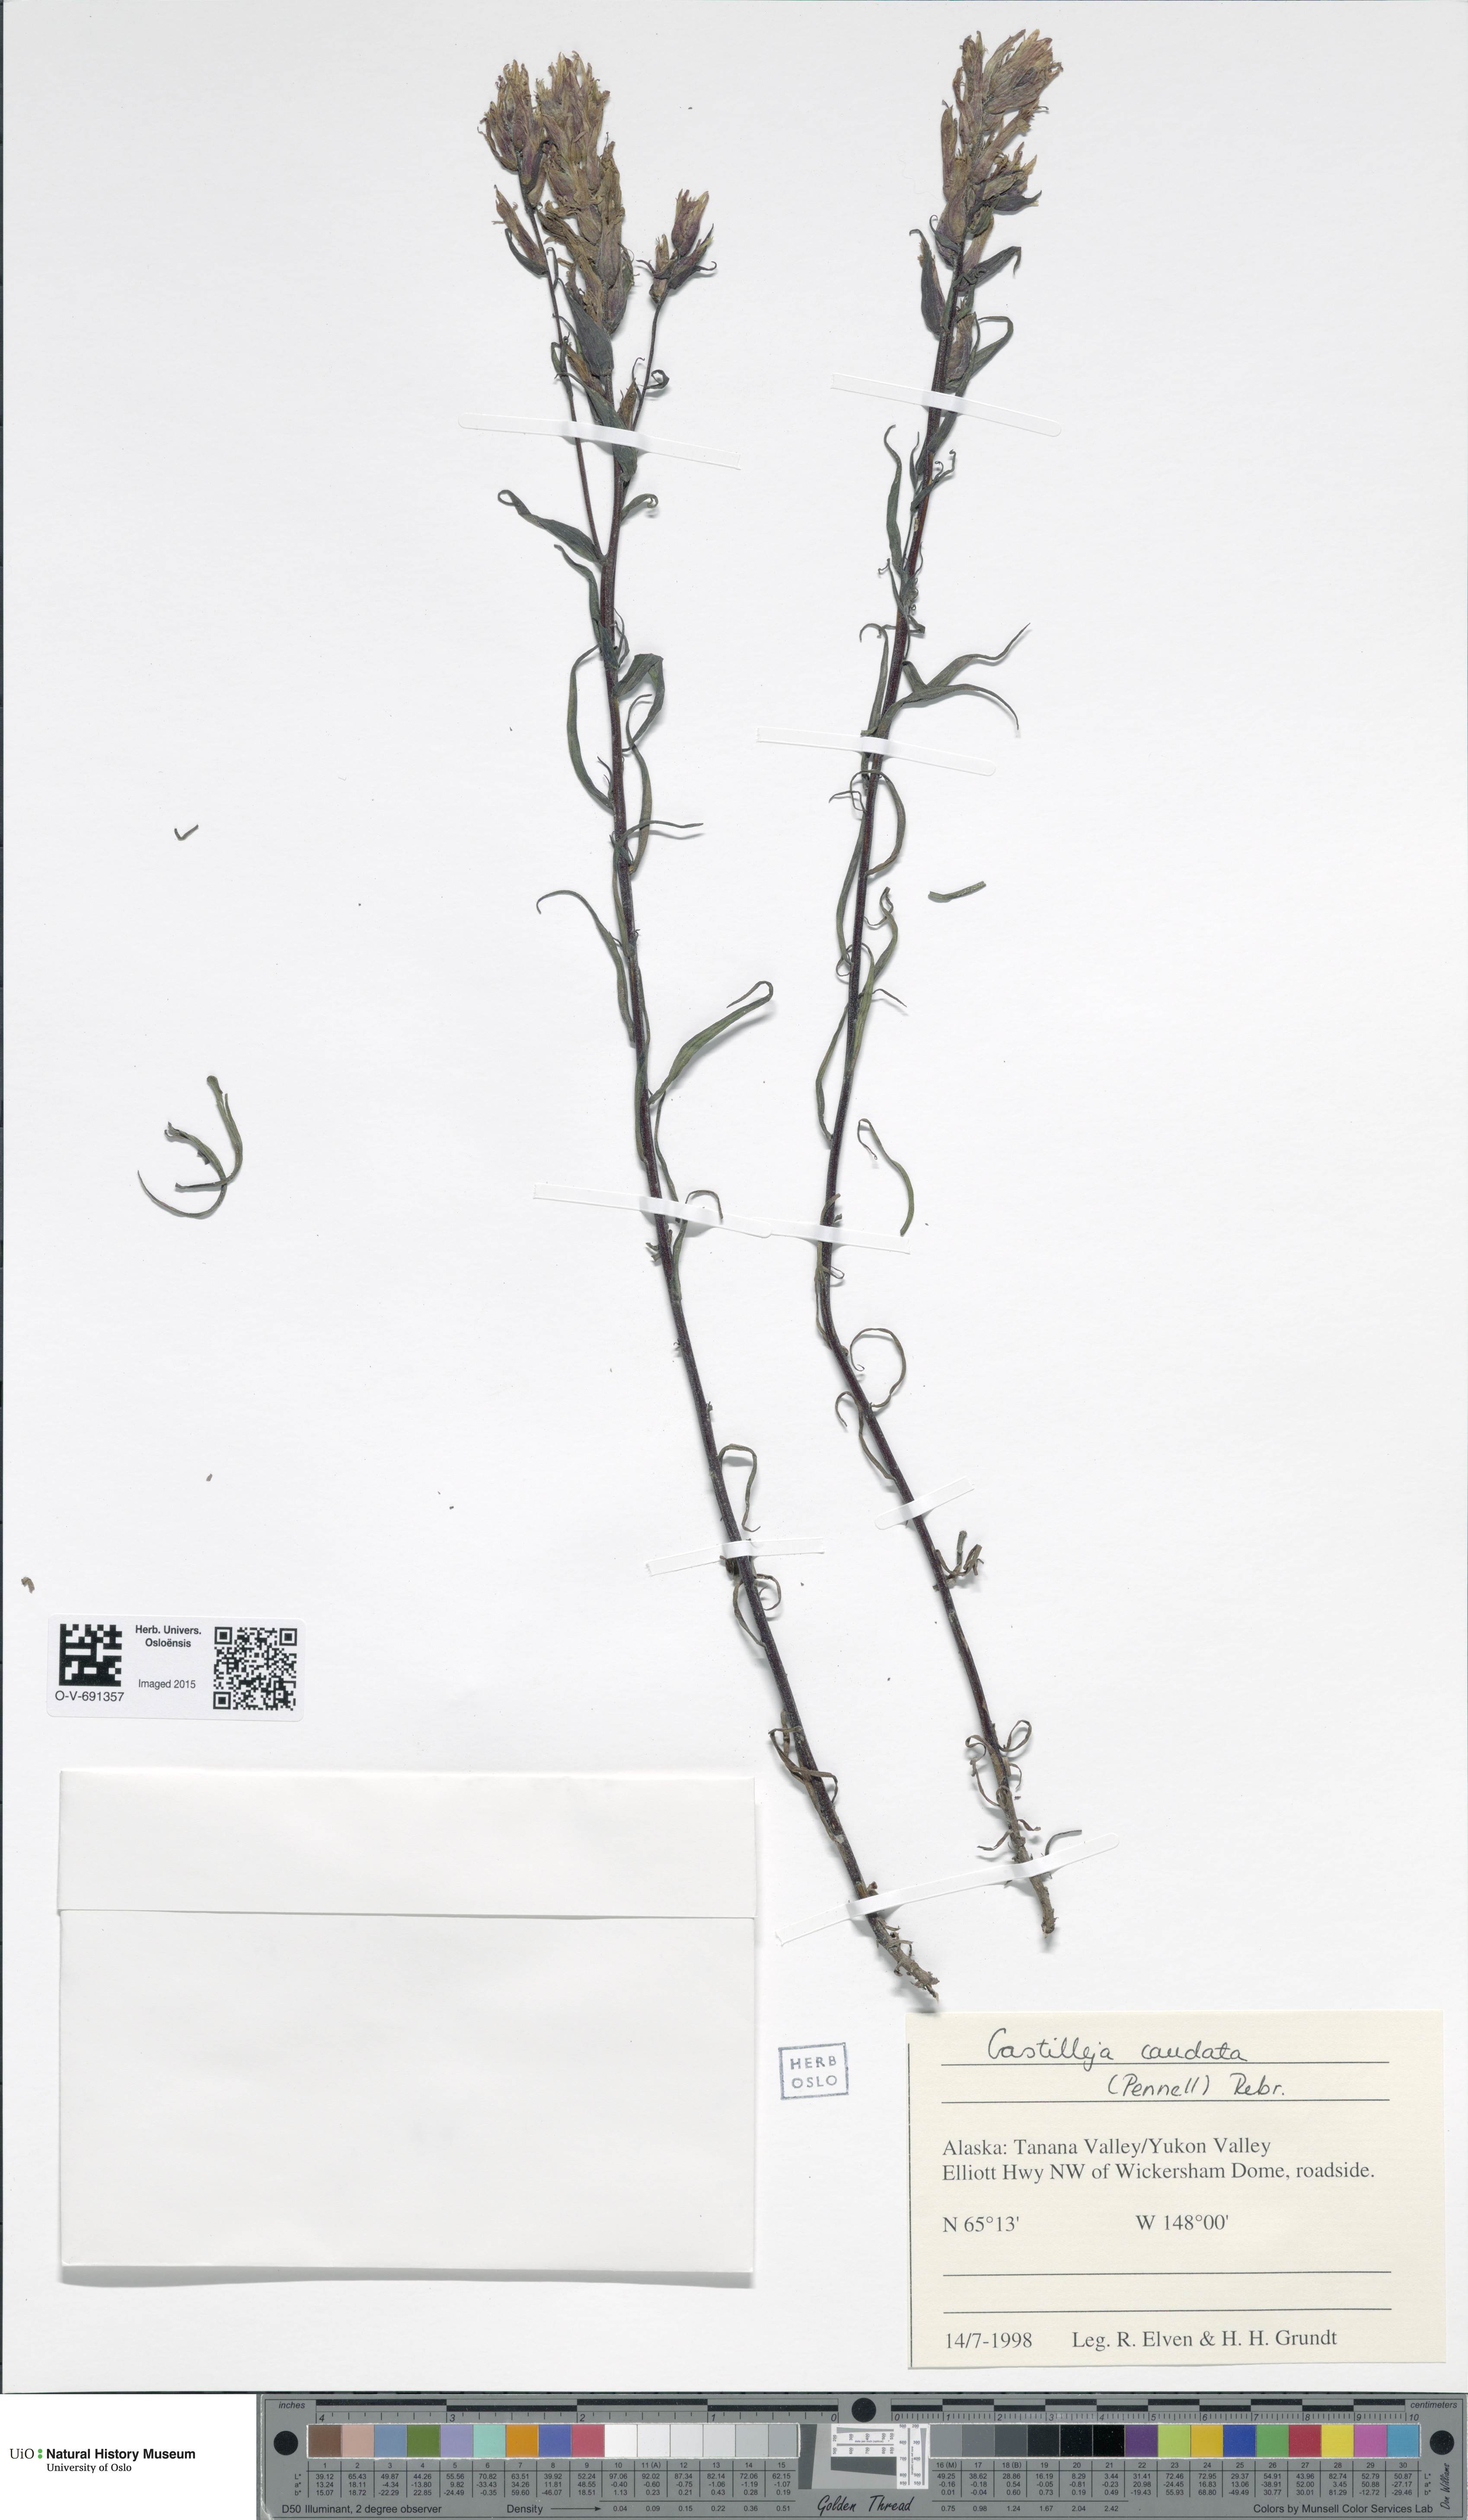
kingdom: Plantae
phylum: Tracheophyta
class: Magnoliopsida
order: Lamiales
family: Orobanchaceae
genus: Castilleja
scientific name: Castilleja pallida
